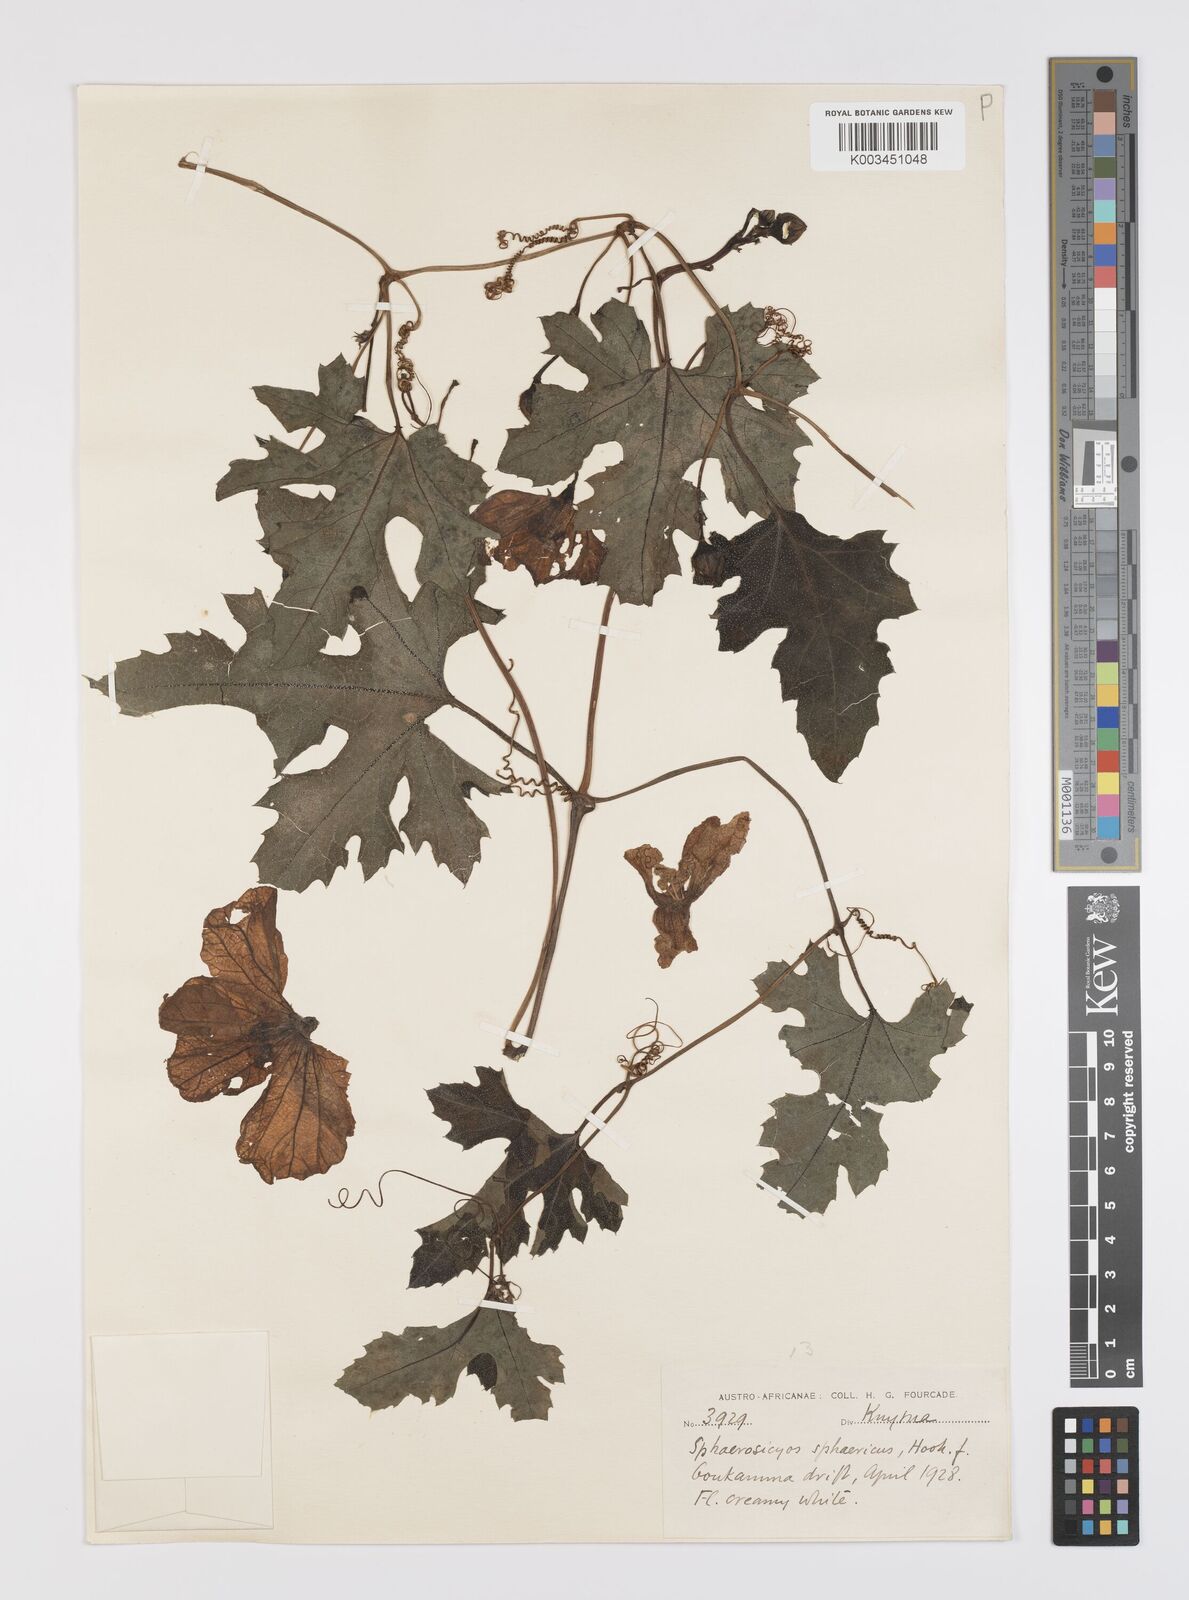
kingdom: Plantae
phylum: Tracheophyta
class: Magnoliopsida
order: Cucurbitales
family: Cucurbitaceae
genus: Lagenaria
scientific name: Lagenaria sphaerica
